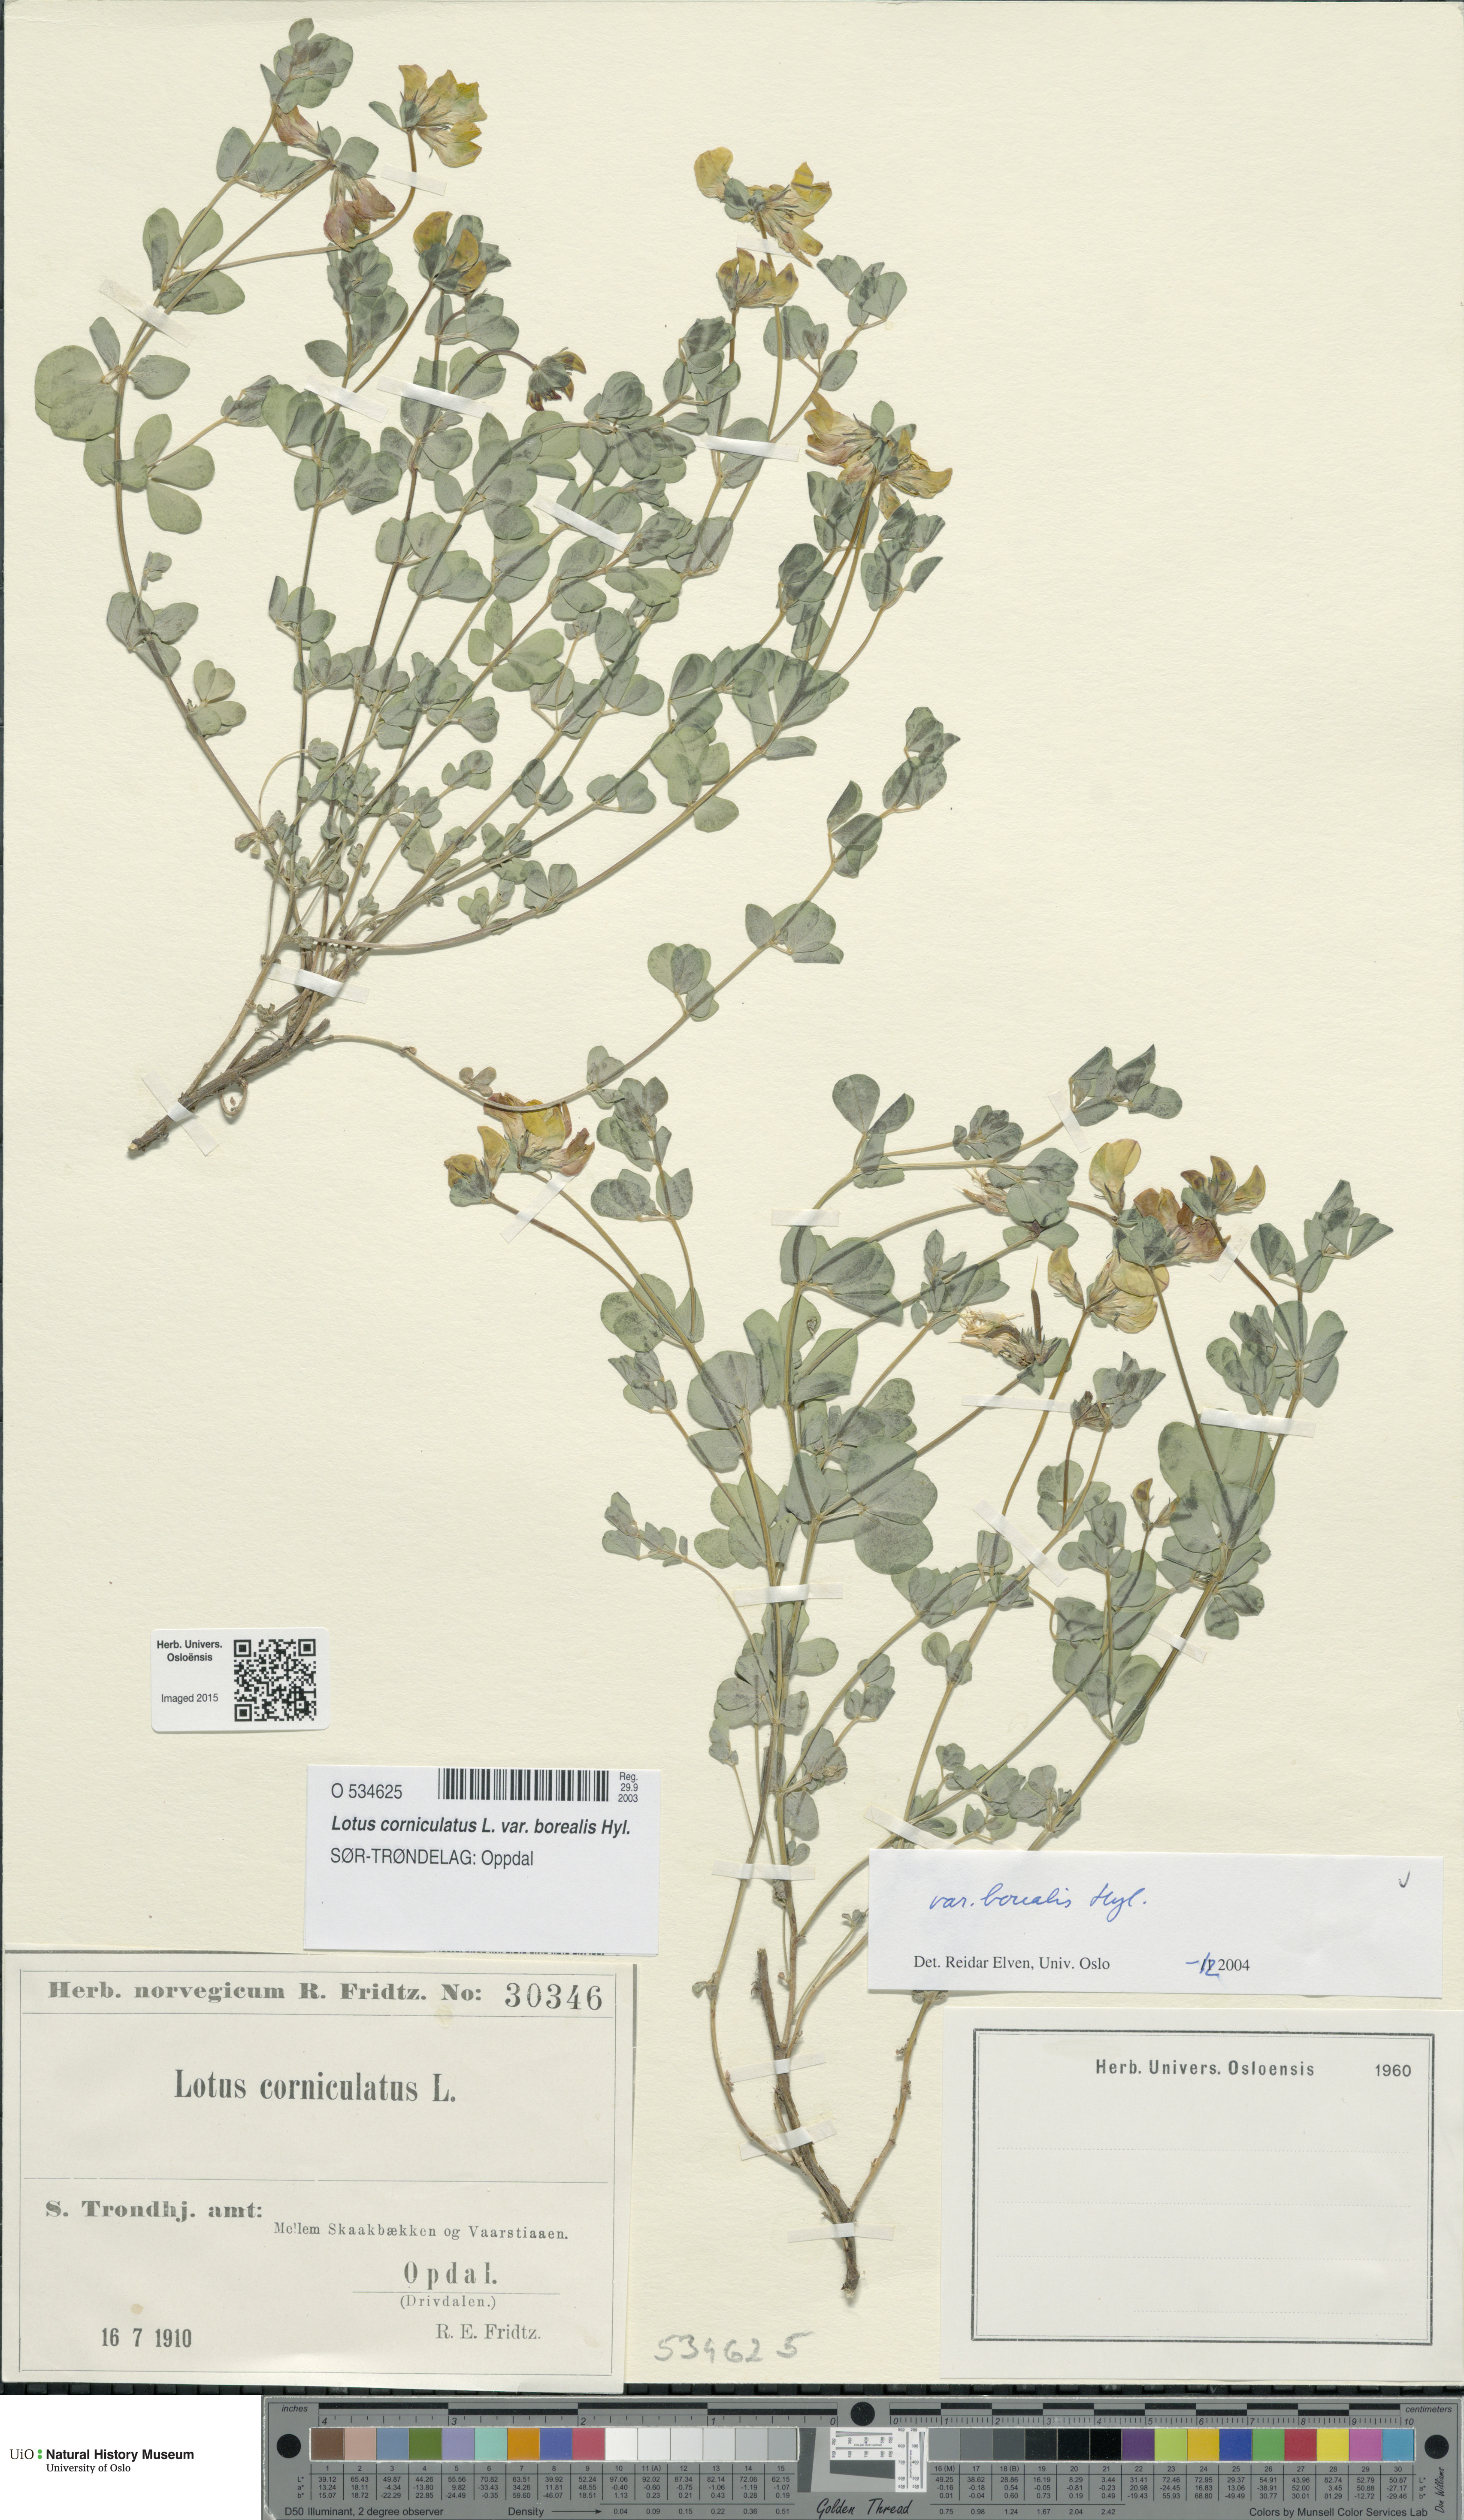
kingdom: Plantae
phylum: Tracheophyta
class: Magnoliopsida
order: Fabales
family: Fabaceae
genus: Lotus
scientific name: Lotus corniculatus
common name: Common bird's-foot-trefoil
